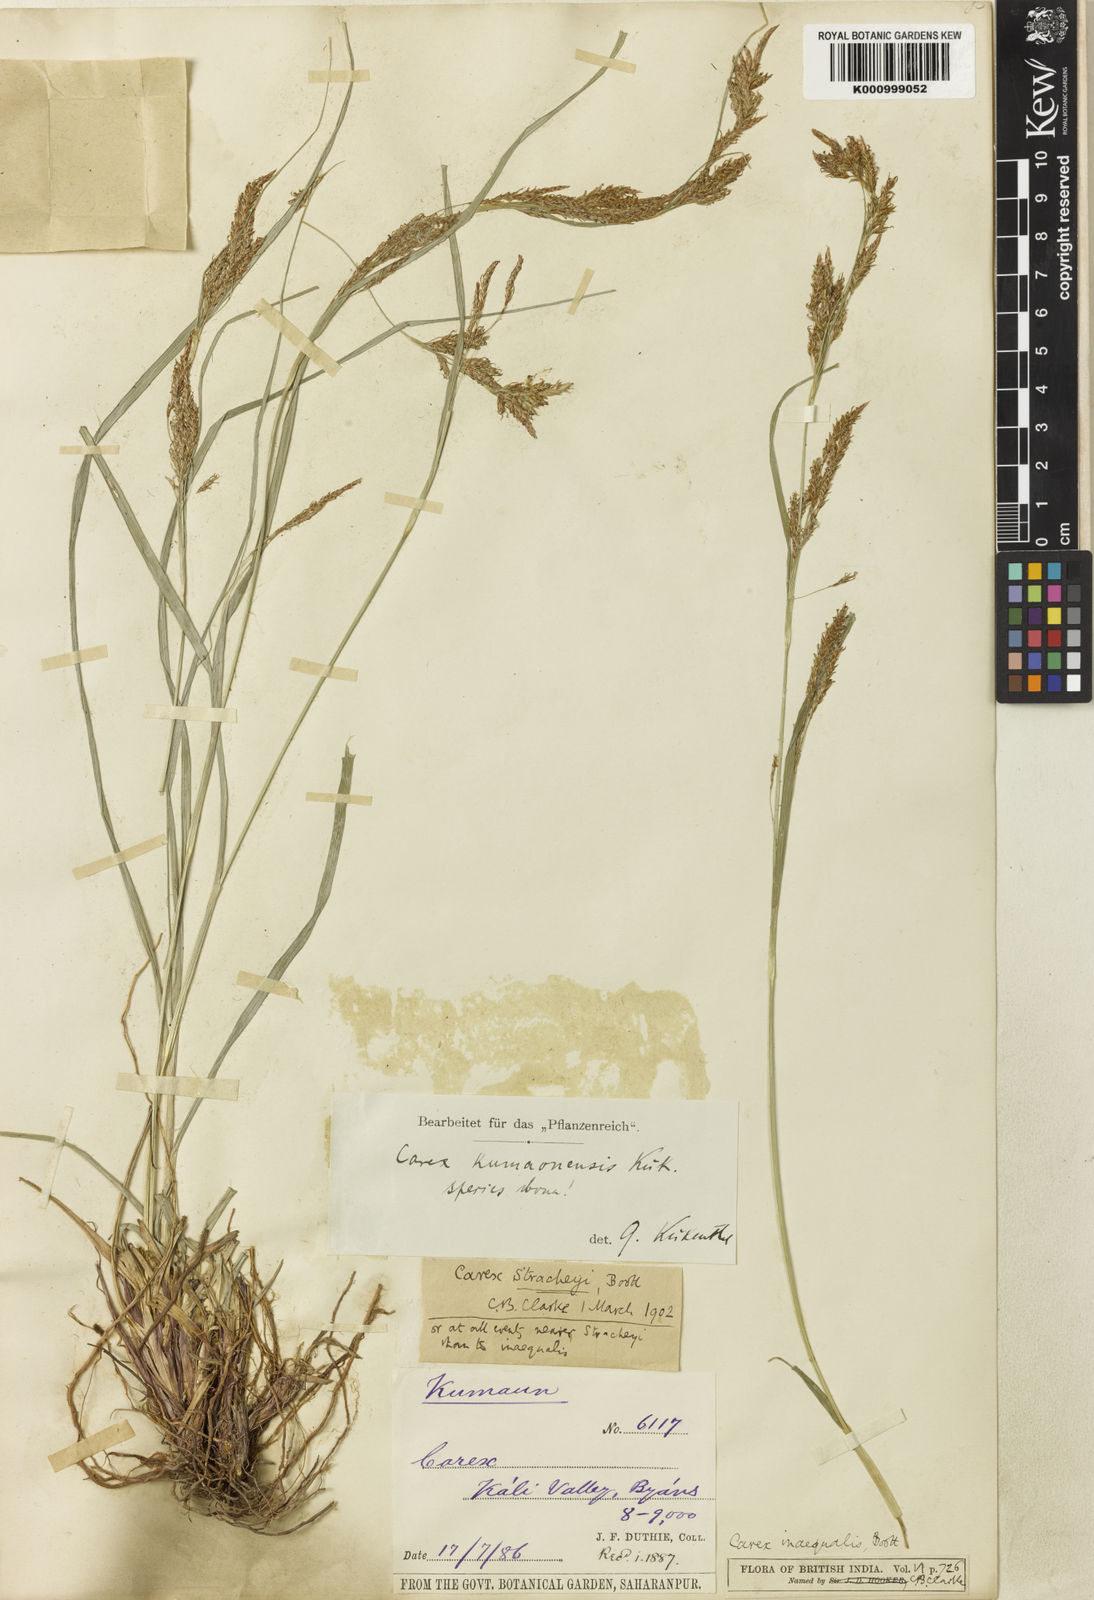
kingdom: Plantae
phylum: Tracheophyta
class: Liliopsida
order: Poales
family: Cyperaceae
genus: Carex
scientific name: Carex
